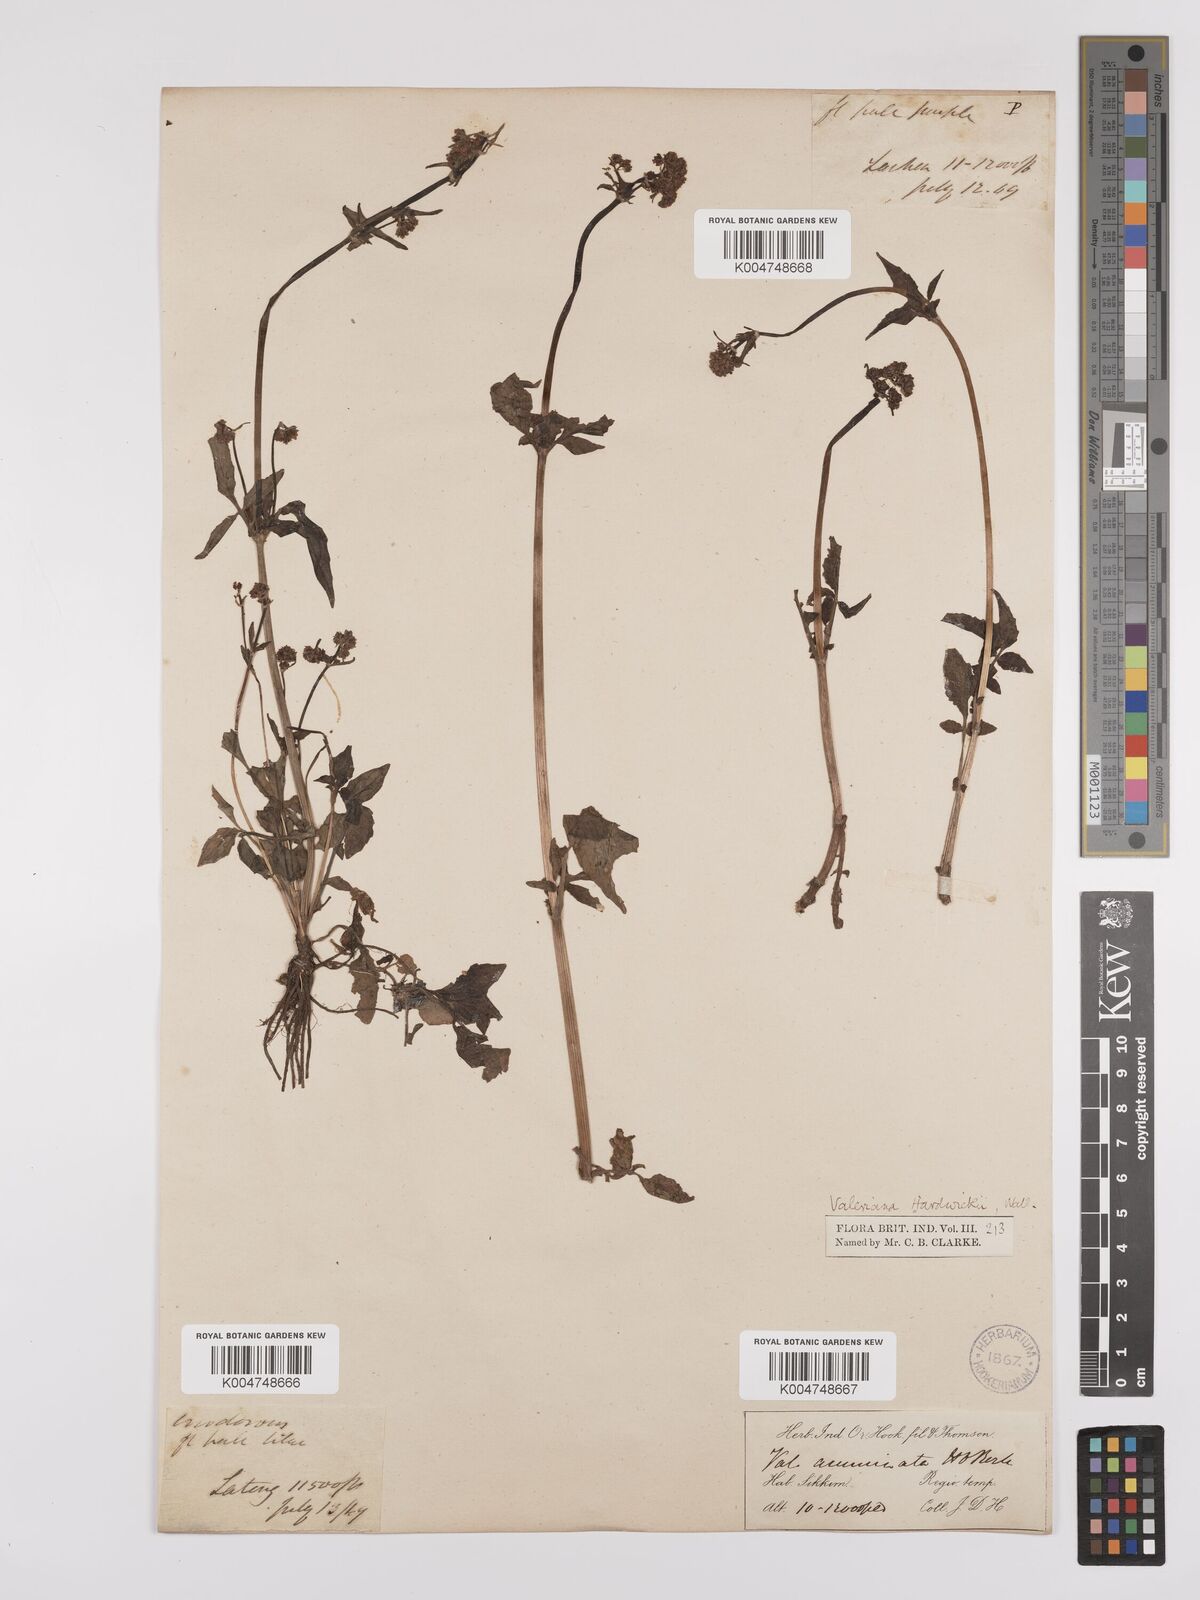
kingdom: Plantae
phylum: Tracheophyta
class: Magnoliopsida
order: Dipsacales
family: Caprifoliaceae
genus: Valeriana
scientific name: Valeriana hardwickei
